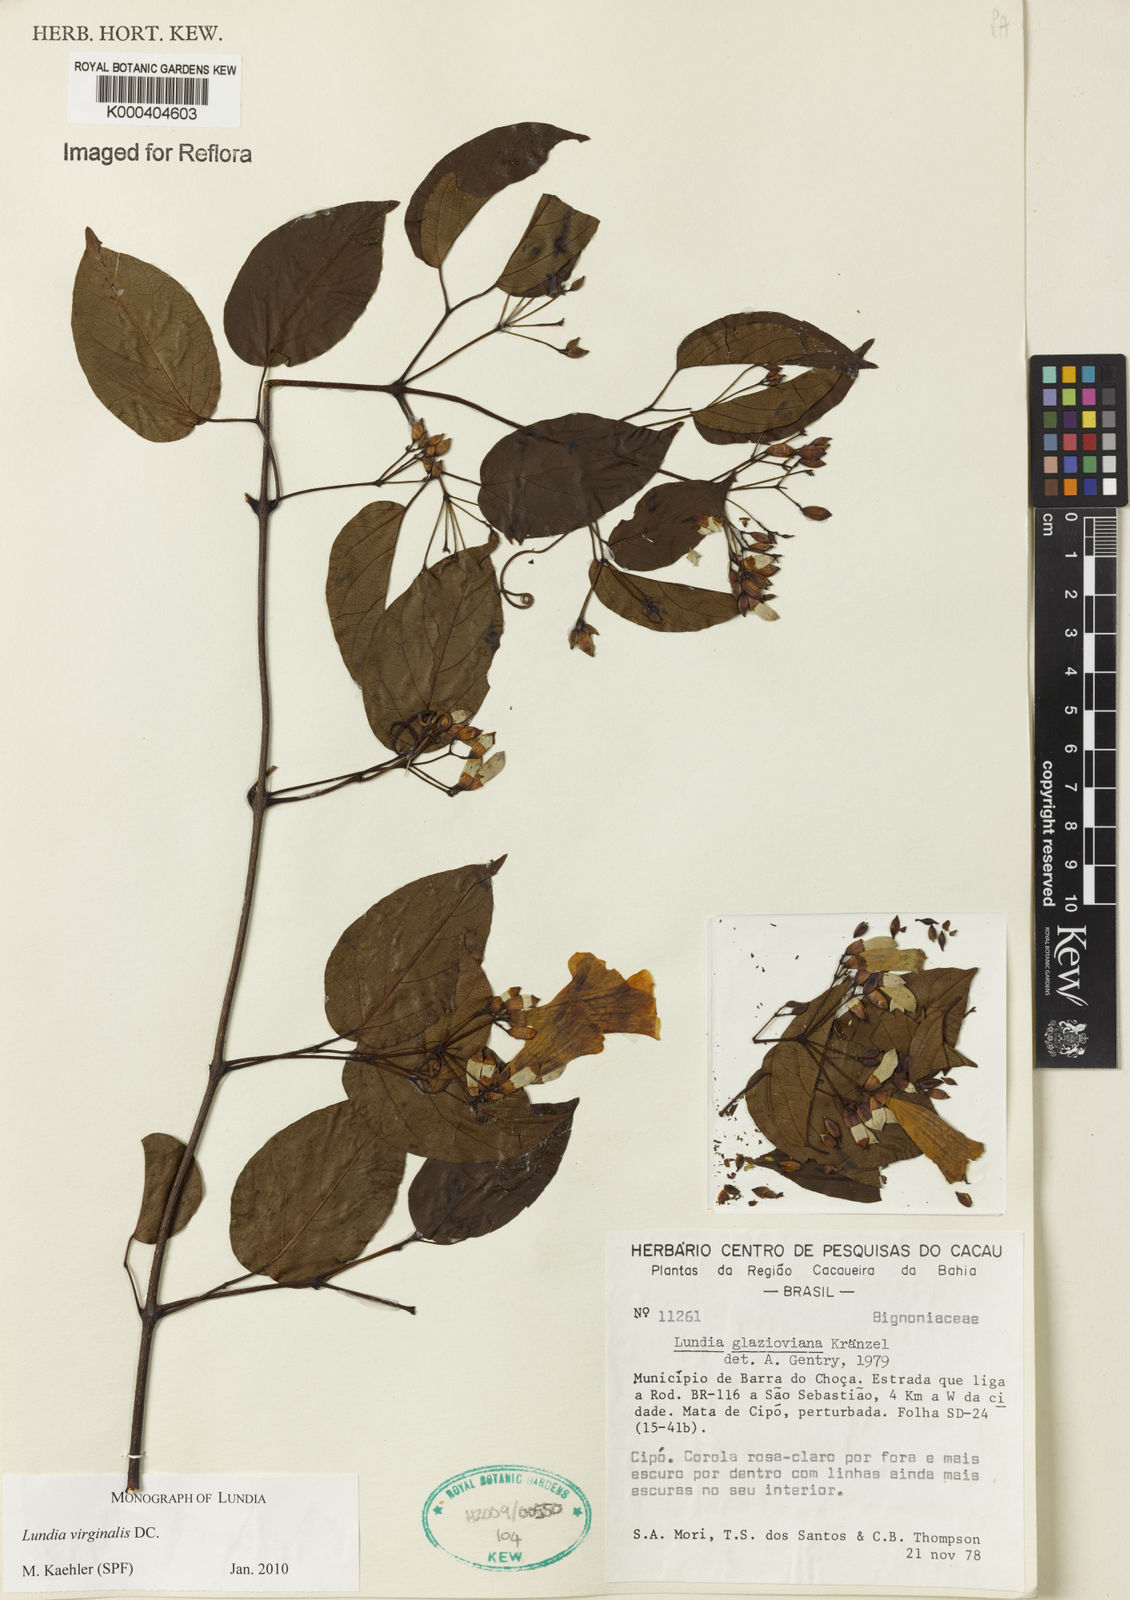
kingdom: Plantae
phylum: Tracheophyta
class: Magnoliopsida
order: Lamiales
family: Bignoniaceae
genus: Lundia
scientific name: Lundia virginalis
